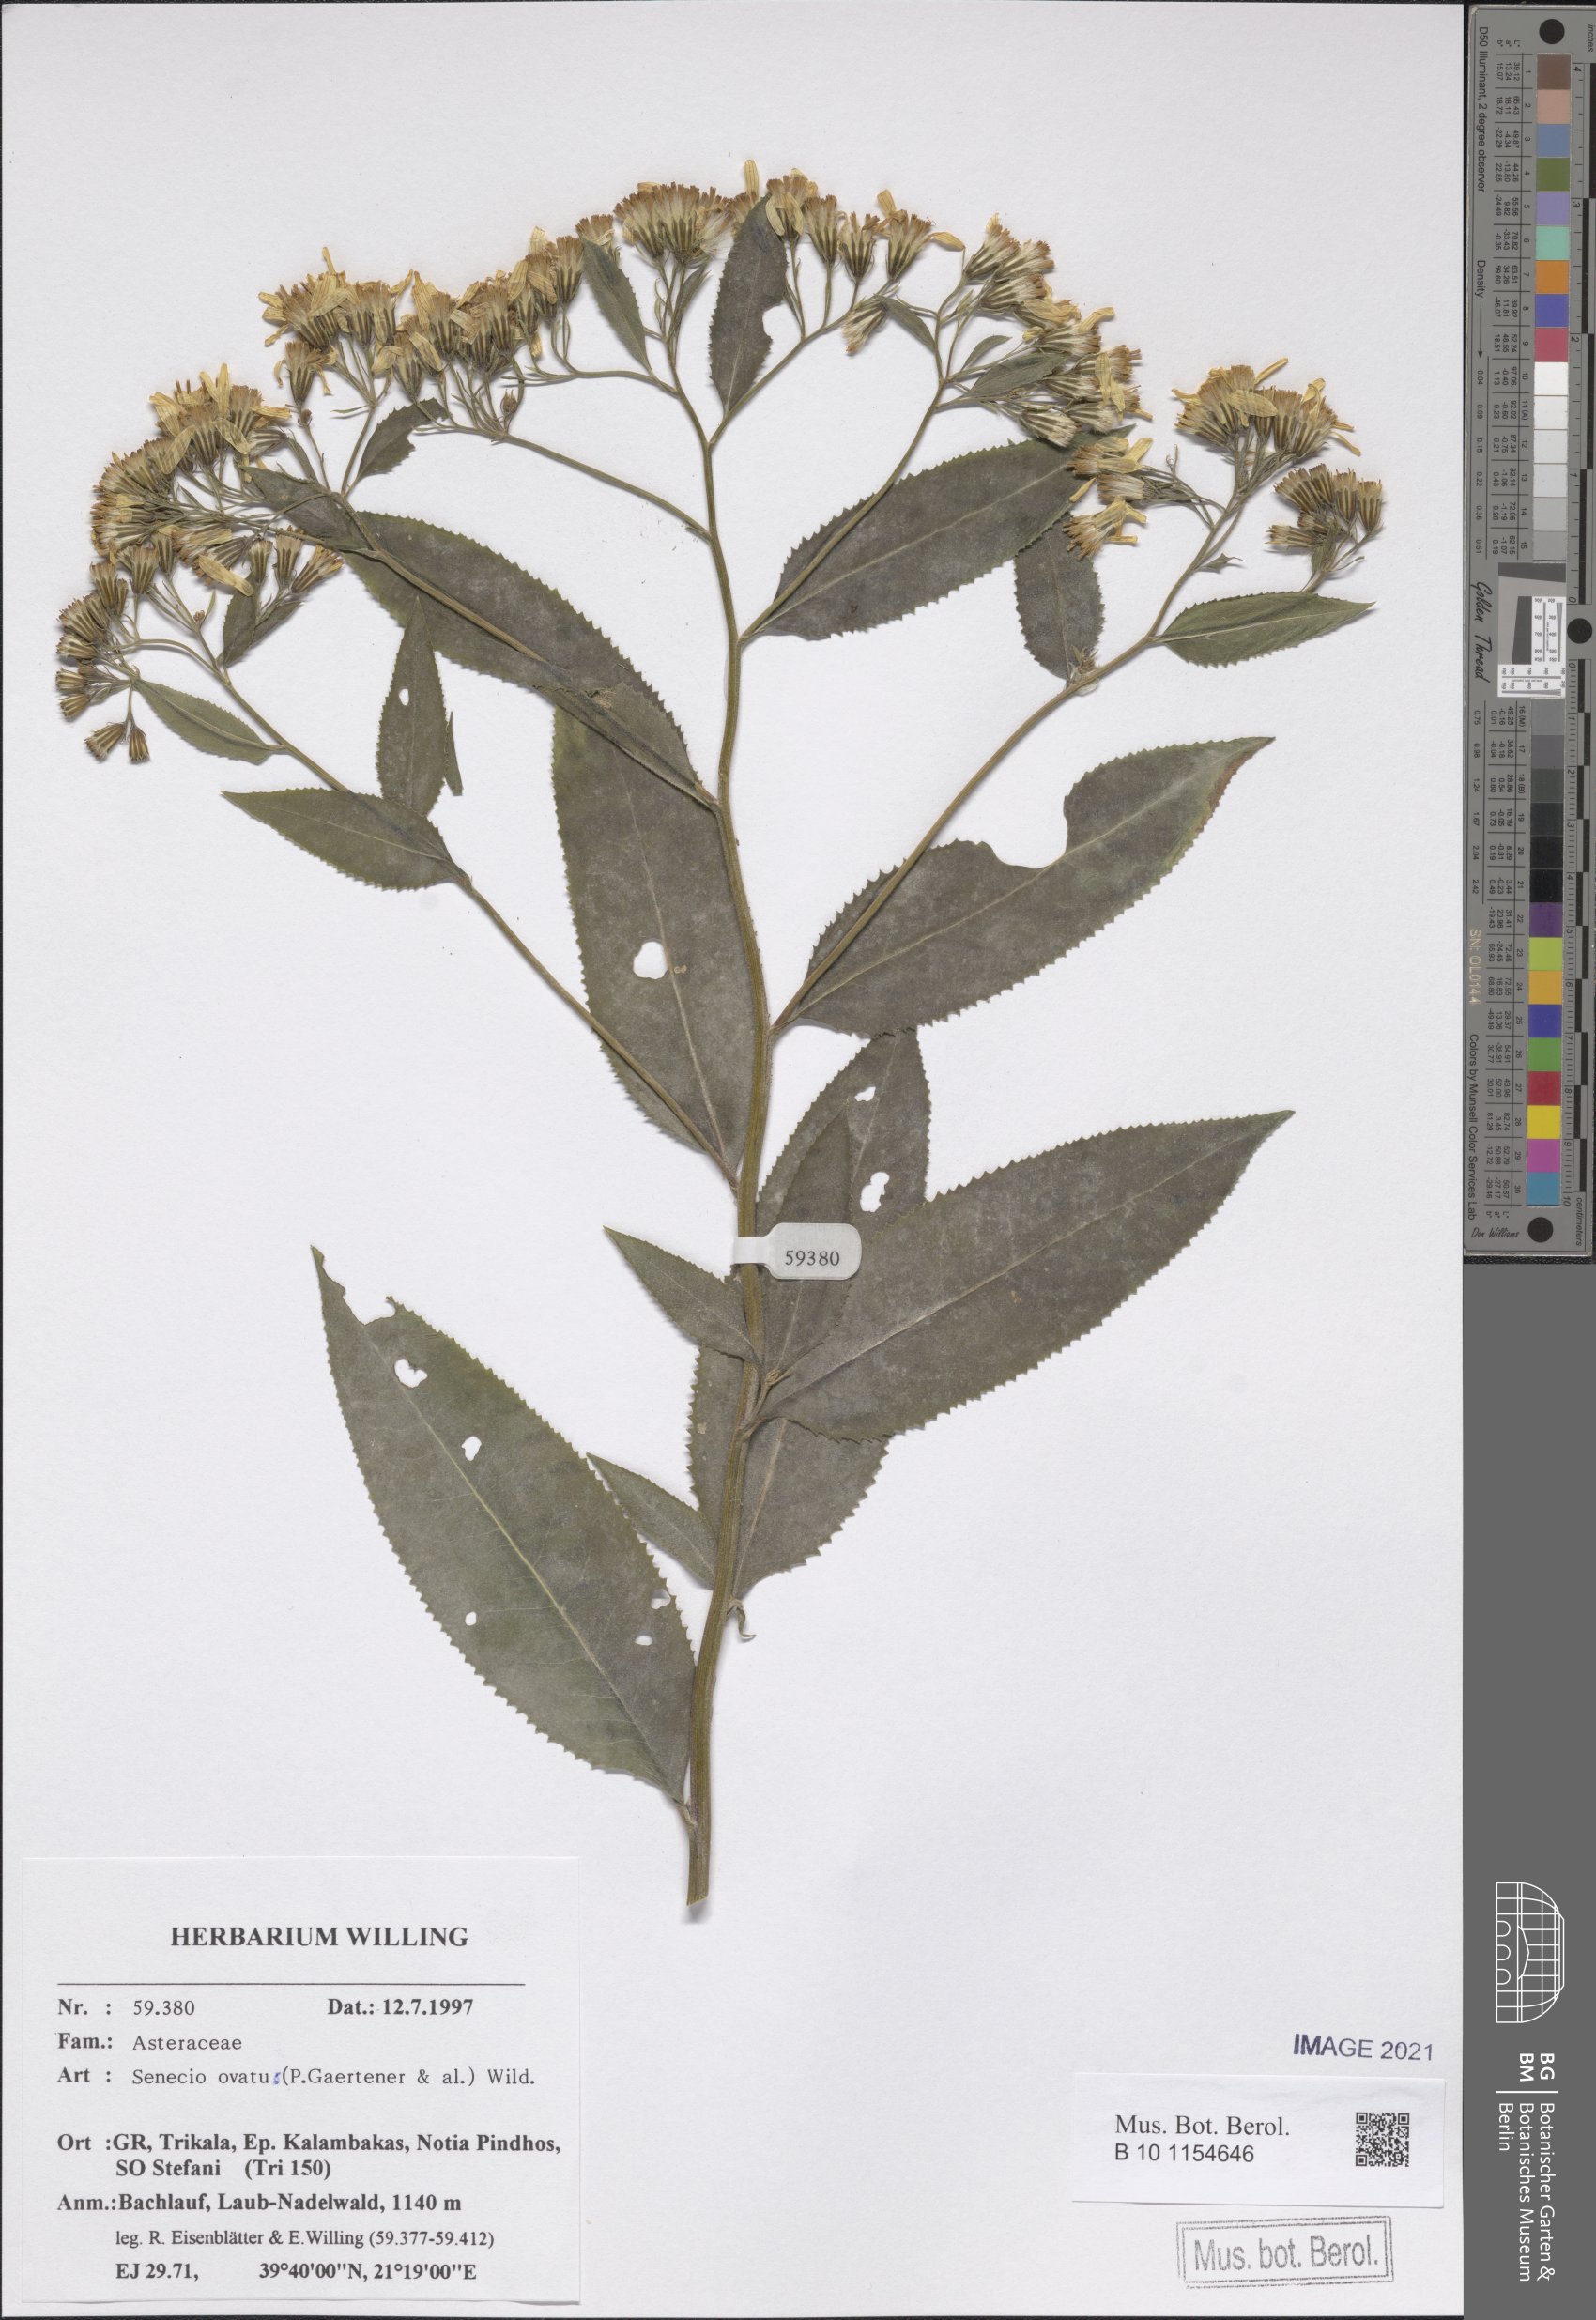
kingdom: Plantae
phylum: Tracheophyta
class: Magnoliopsida
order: Asterales
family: Asteraceae
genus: Senecio
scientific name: Senecio ovatus
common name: Wood ragwort
